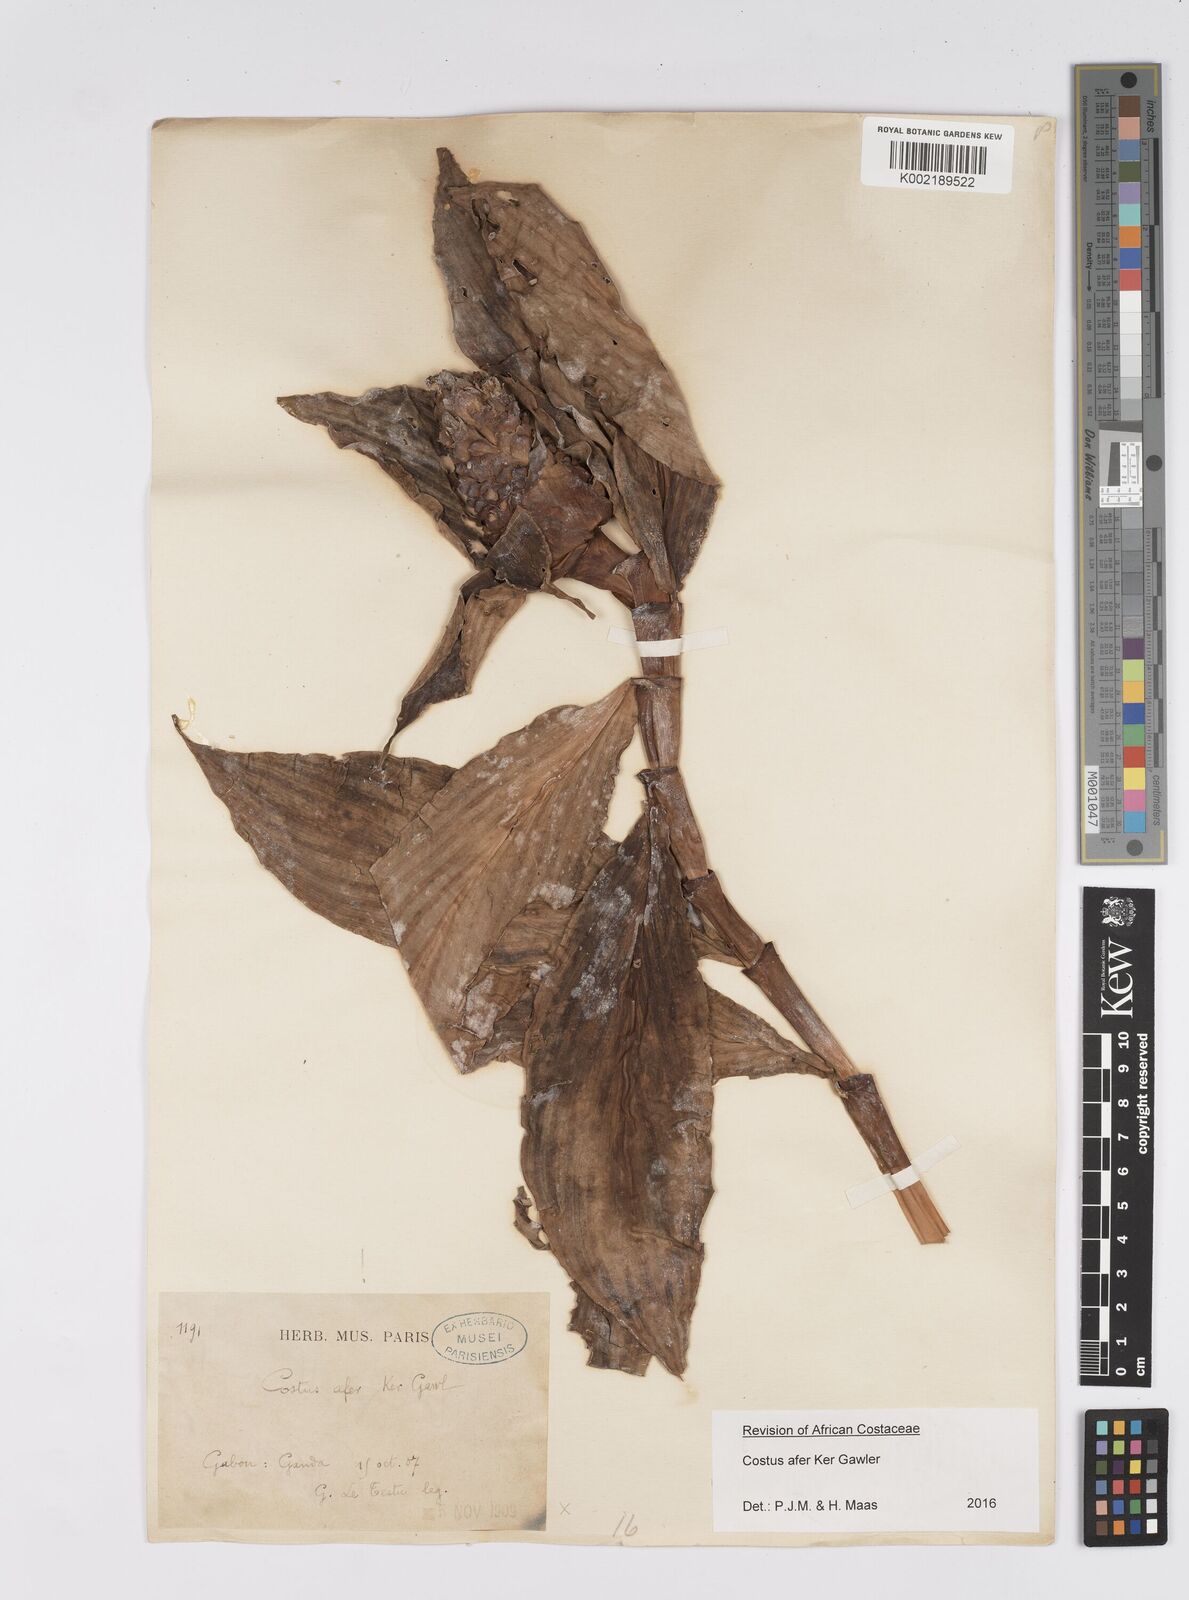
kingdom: Plantae
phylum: Tracheophyta
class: Liliopsida
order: Zingiberales
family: Costaceae
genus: Costus
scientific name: Costus afer
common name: Spiral-ginger
